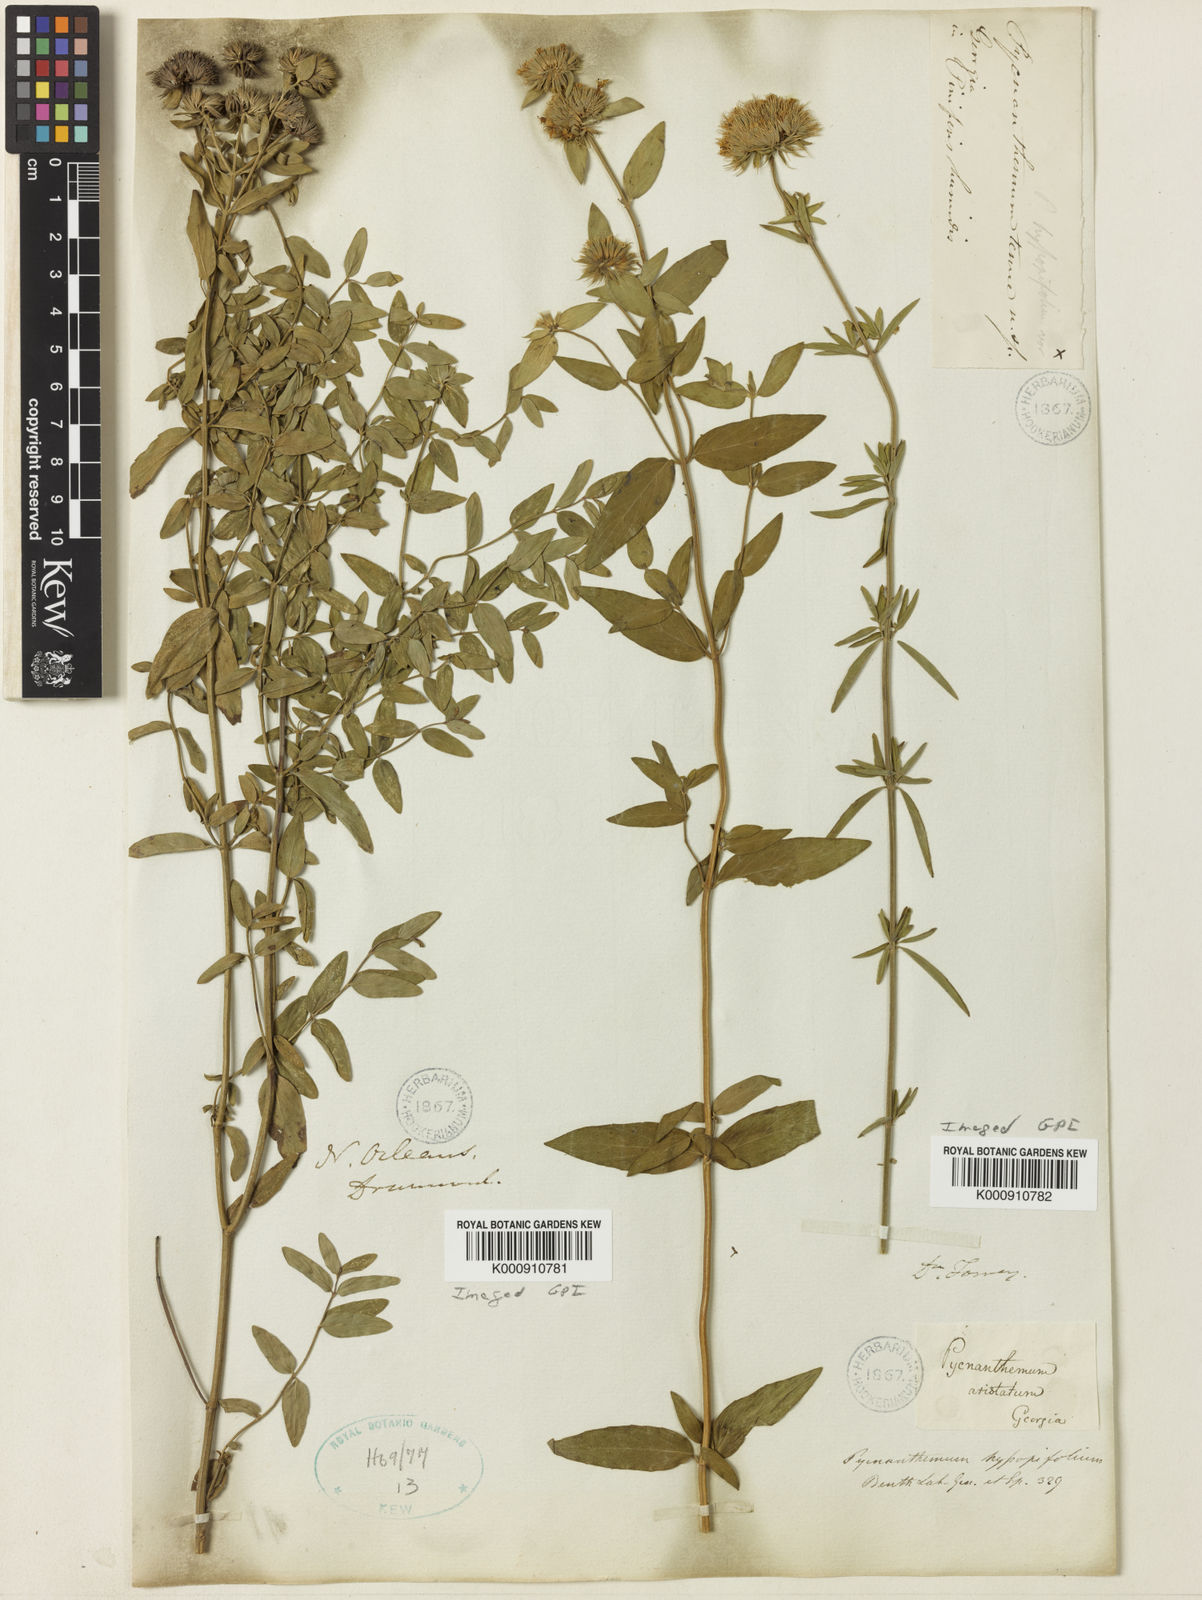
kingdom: Plantae
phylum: Tracheophyta
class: Magnoliopsida
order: Lamiales
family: Lamiaceae
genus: Pycnanthemum
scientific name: Pycnanthemum setosum
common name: Awned mountain-mint
